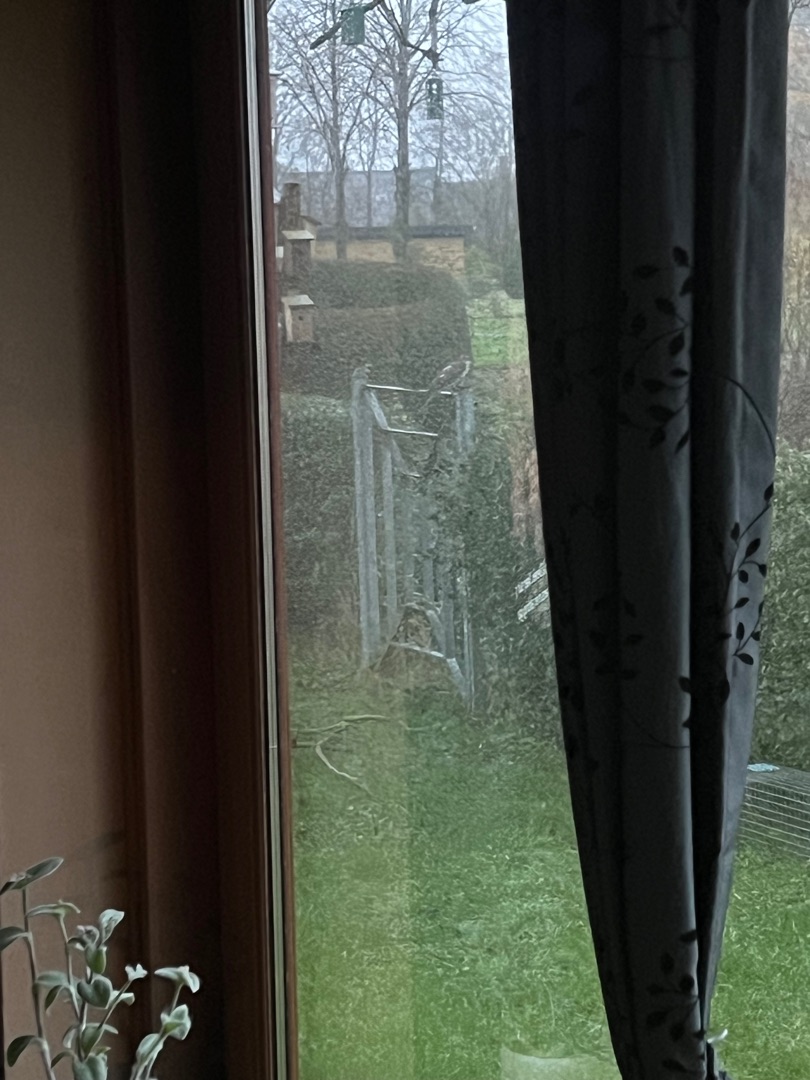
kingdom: Animalia
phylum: Chordata
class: Aves
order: Accipitriformes
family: Accipitridae
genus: Accipiter
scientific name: Accipiter nisus
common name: Spurvehøg
